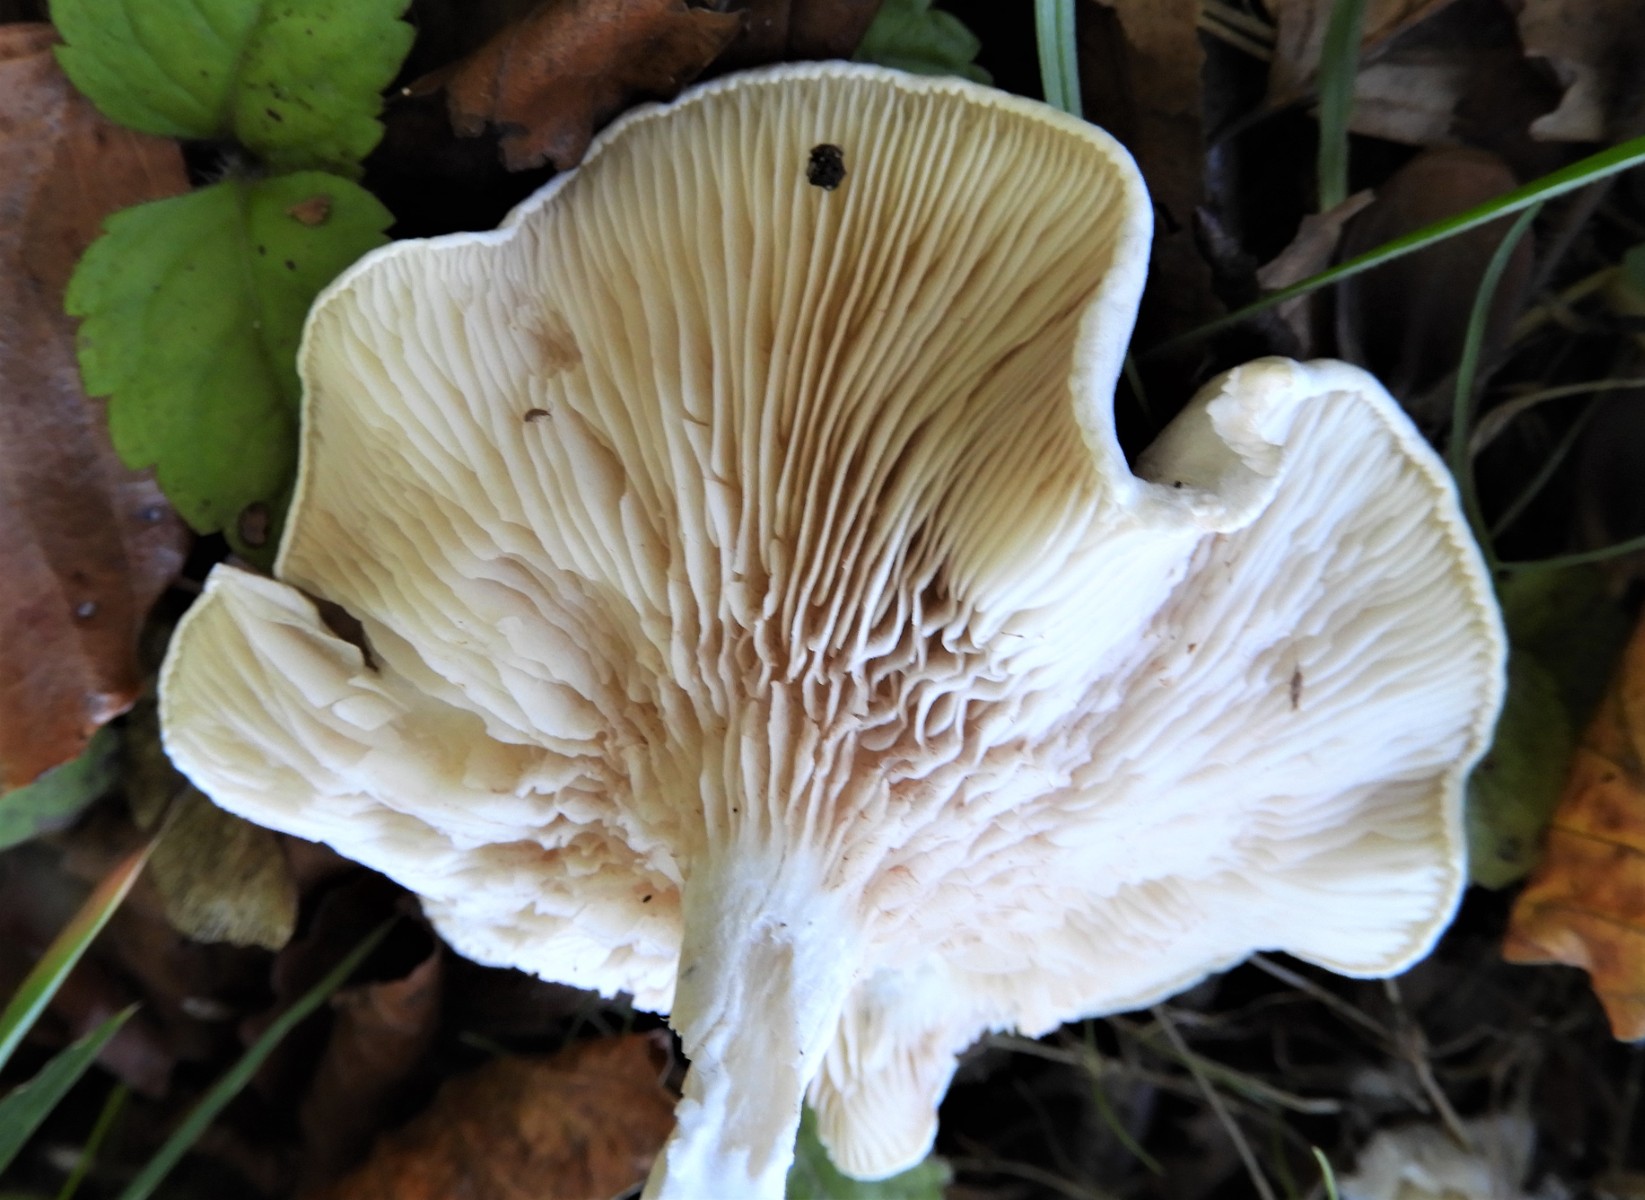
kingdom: Fungi
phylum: Basidiomycota
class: Agaricomycetes
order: Agaricales
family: Entolomataceae
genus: Clitopilus
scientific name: Clitopilus prunulus
